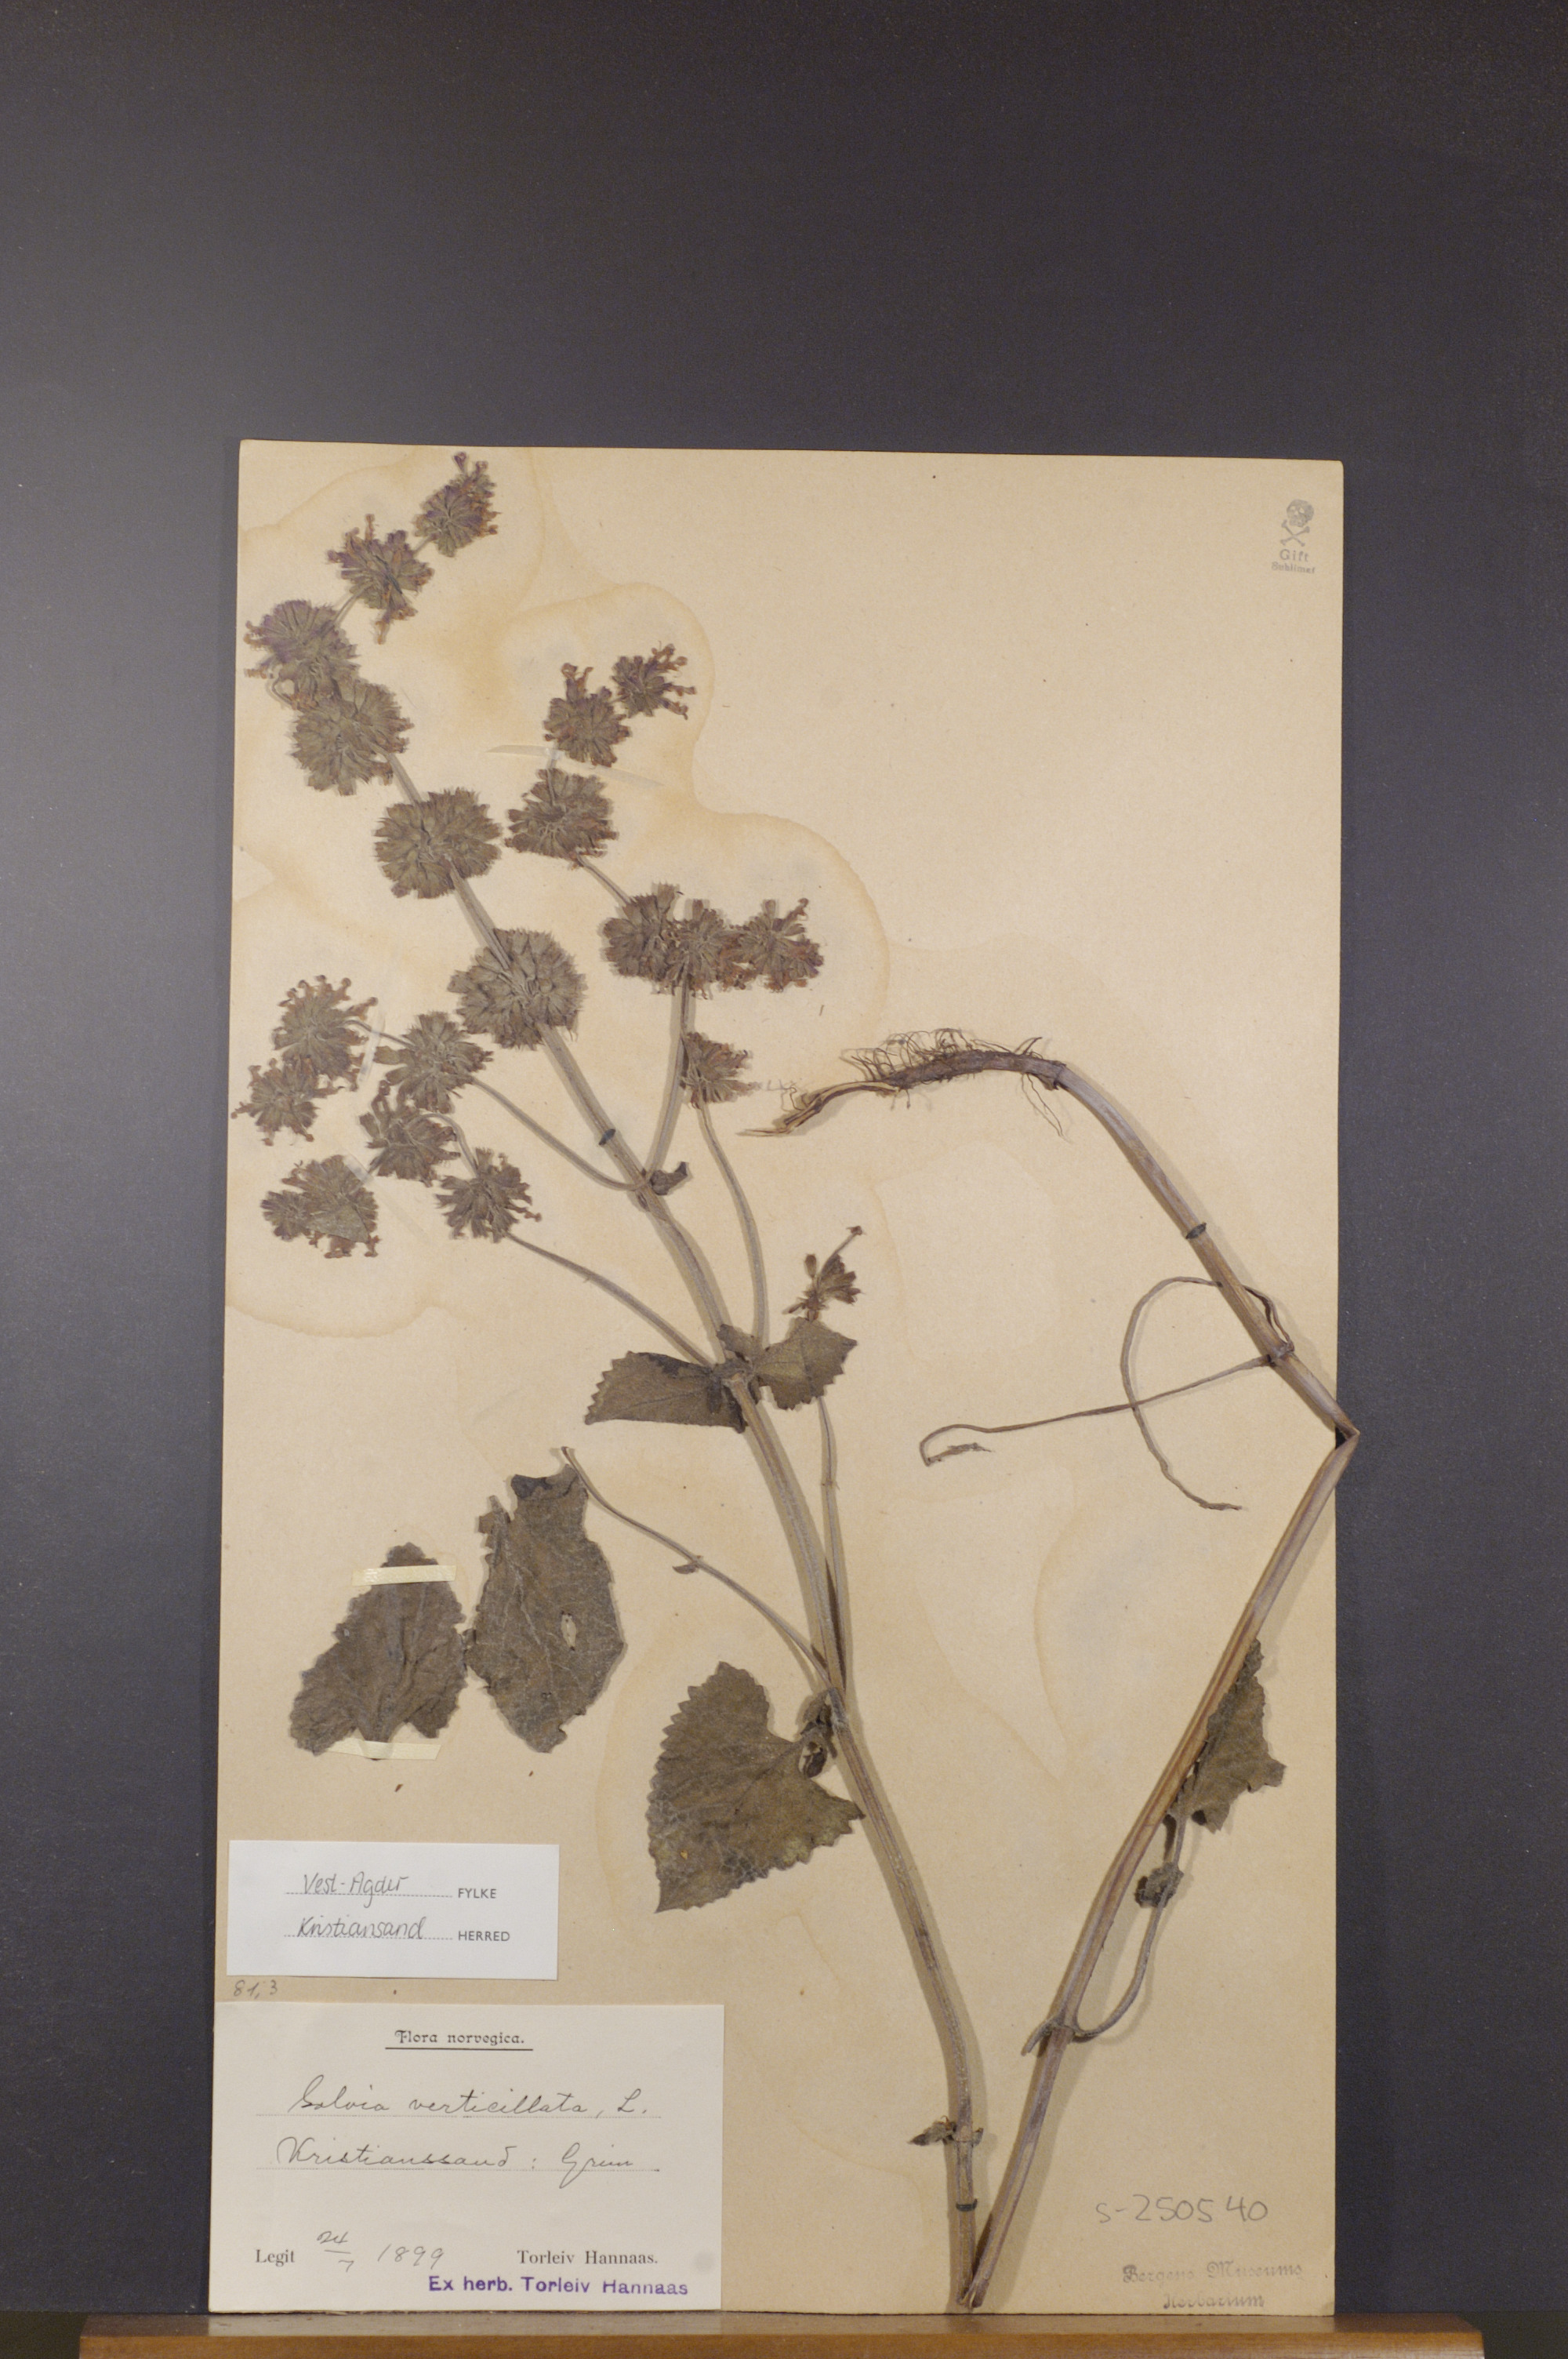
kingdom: Plantae
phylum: Tracheophyta
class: Magnoliopsida
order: Lamiales
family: Lamiaceae
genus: Salvia
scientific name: Salvia verticillata
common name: Whorled clary
